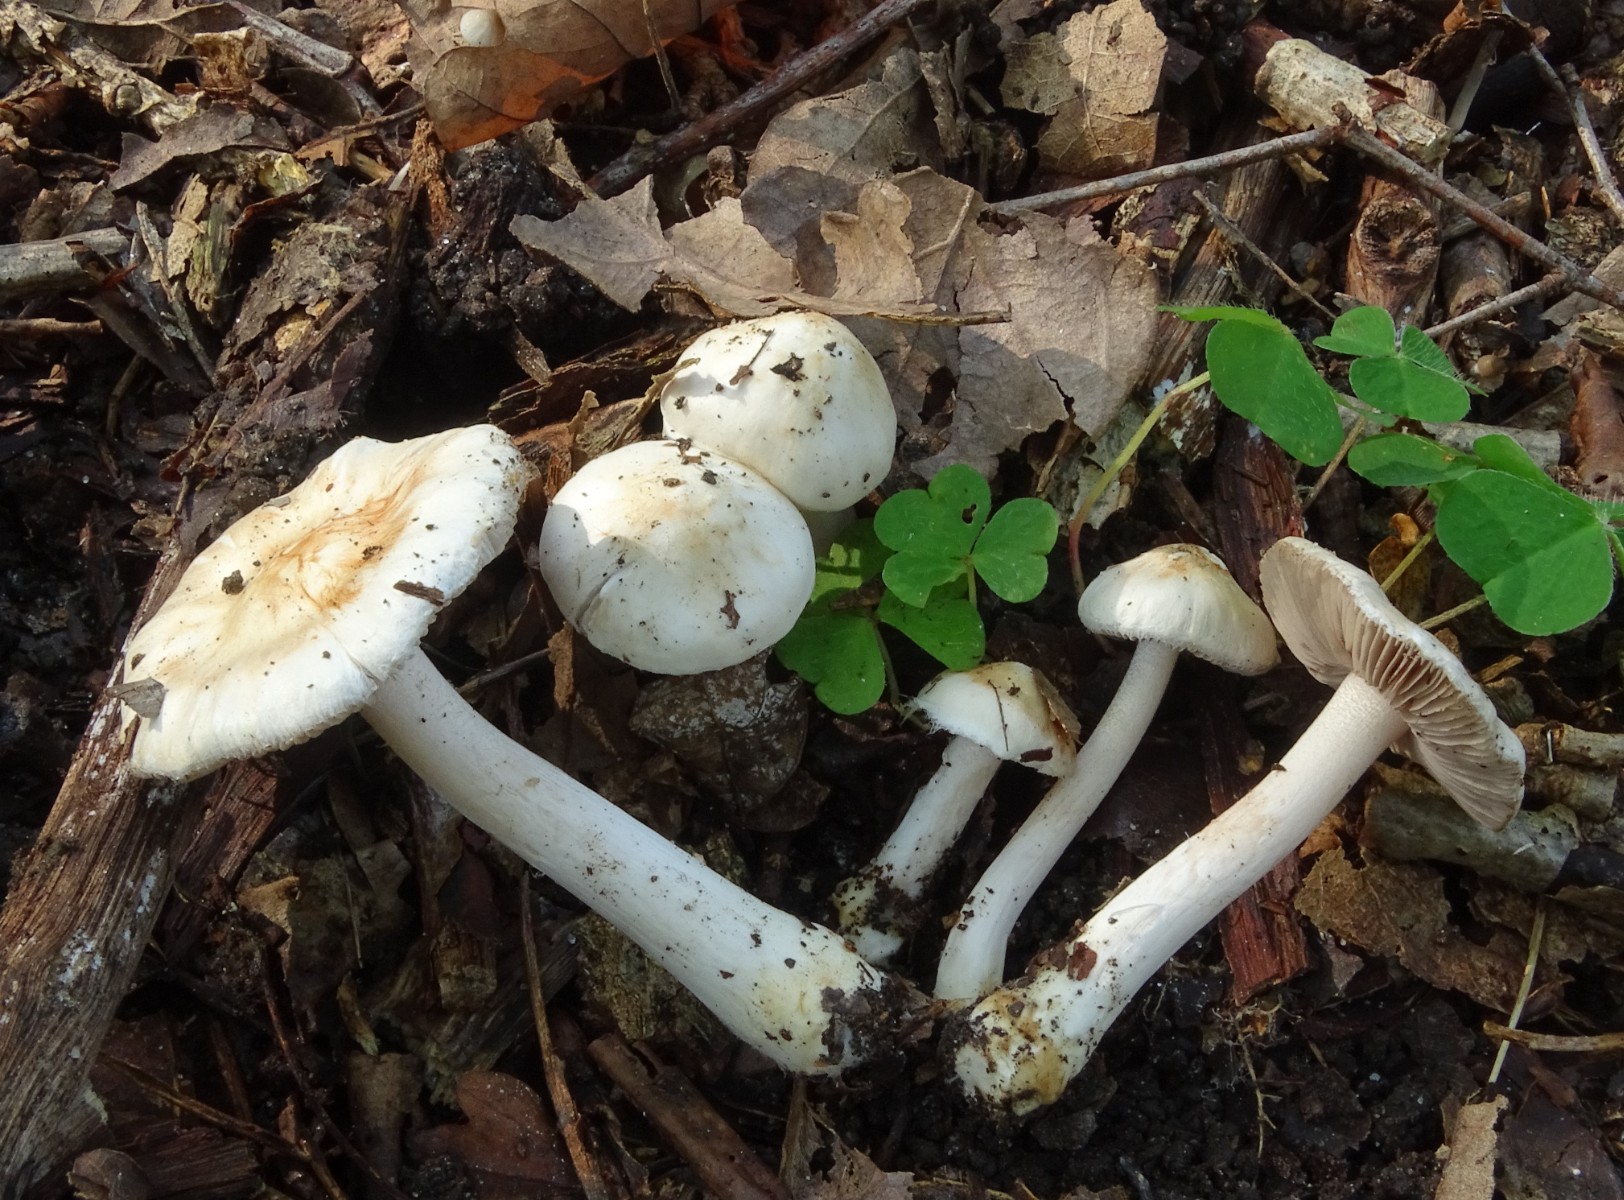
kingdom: Fungi
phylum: Basidiomycota
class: Agaricomycetes
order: Agaricales
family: Inocybaceae
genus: Inocybe
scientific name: Inocybe
